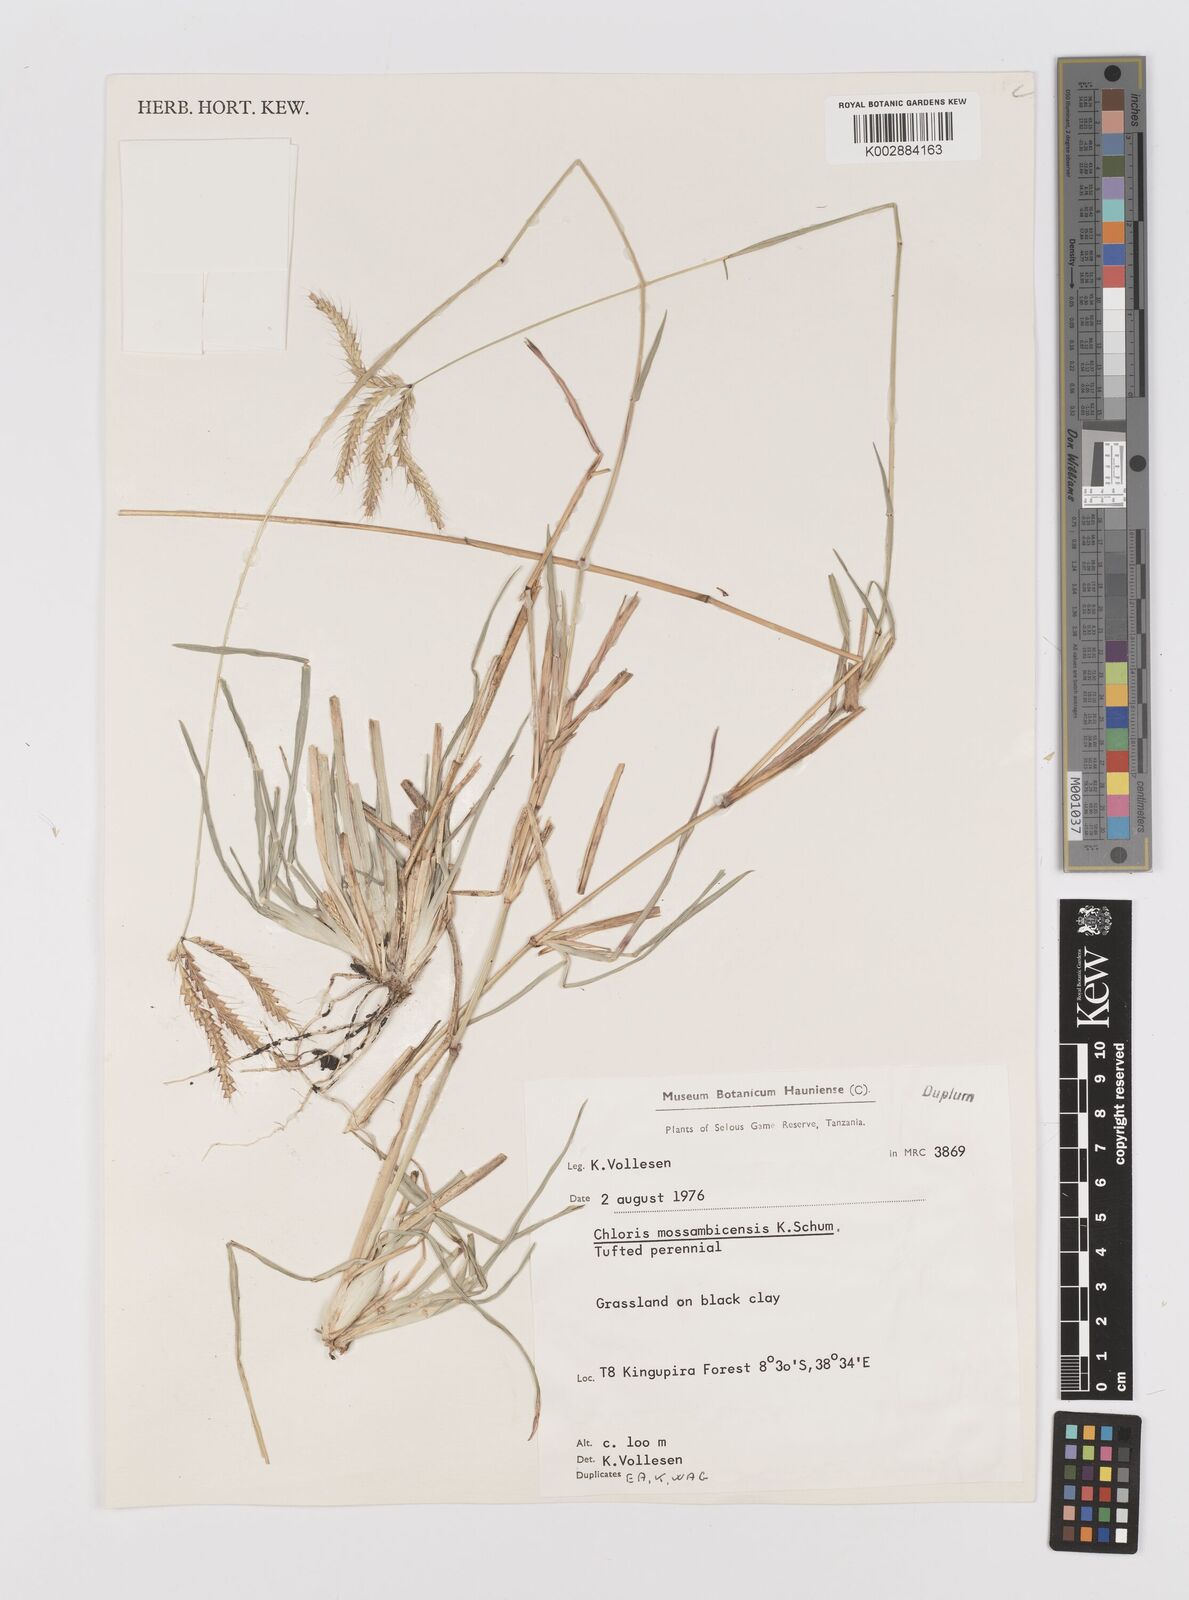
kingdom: Plantae
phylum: Tracheophyta
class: Liliopsida
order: Poales
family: Poaceae
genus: Chloris
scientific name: Chloris mossambicensis
